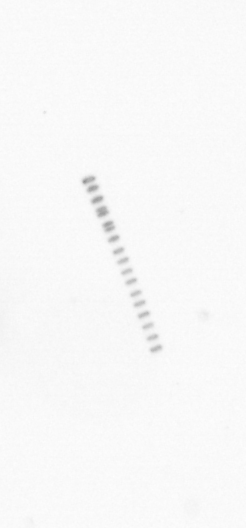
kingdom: Chromista
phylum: Ochrophyta
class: Bacillariophyceae
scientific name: Bacillariophyceae
